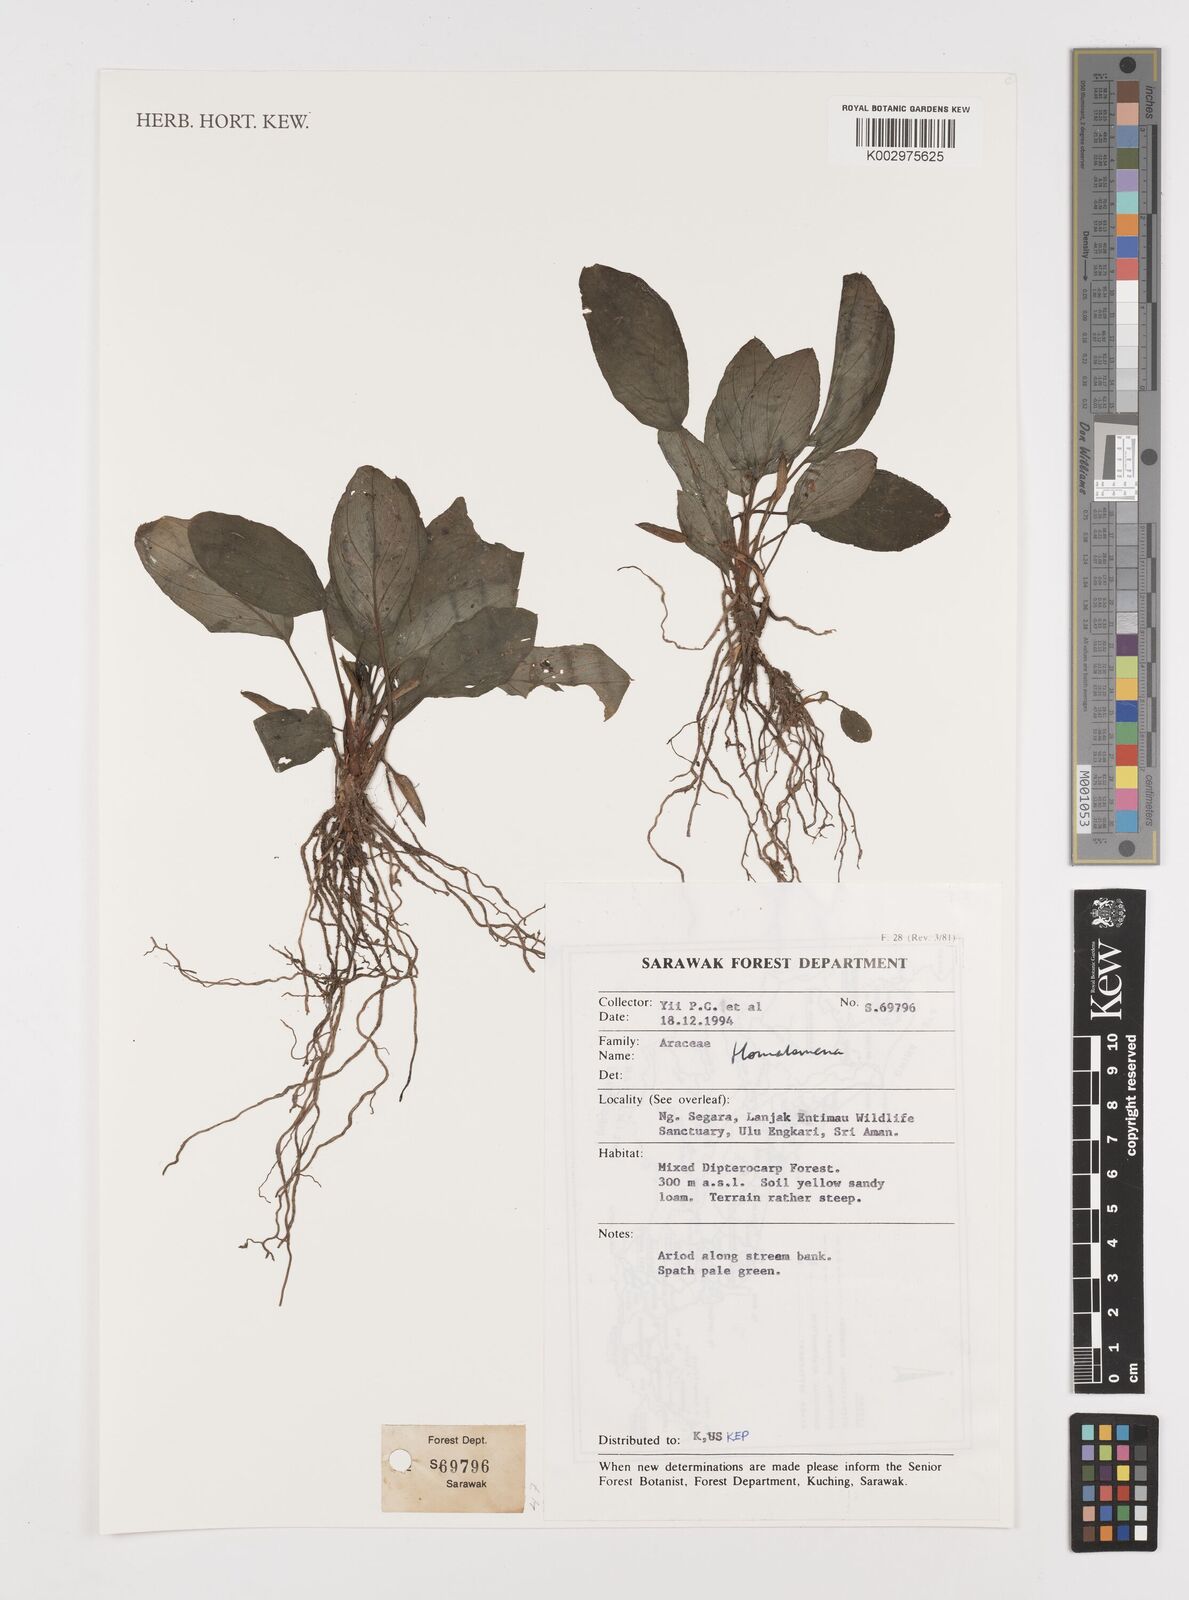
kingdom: Plantae
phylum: Tracheophyta
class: Liliopsida
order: Alismatales
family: Araceae
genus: Homalomena
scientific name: Homalomena
